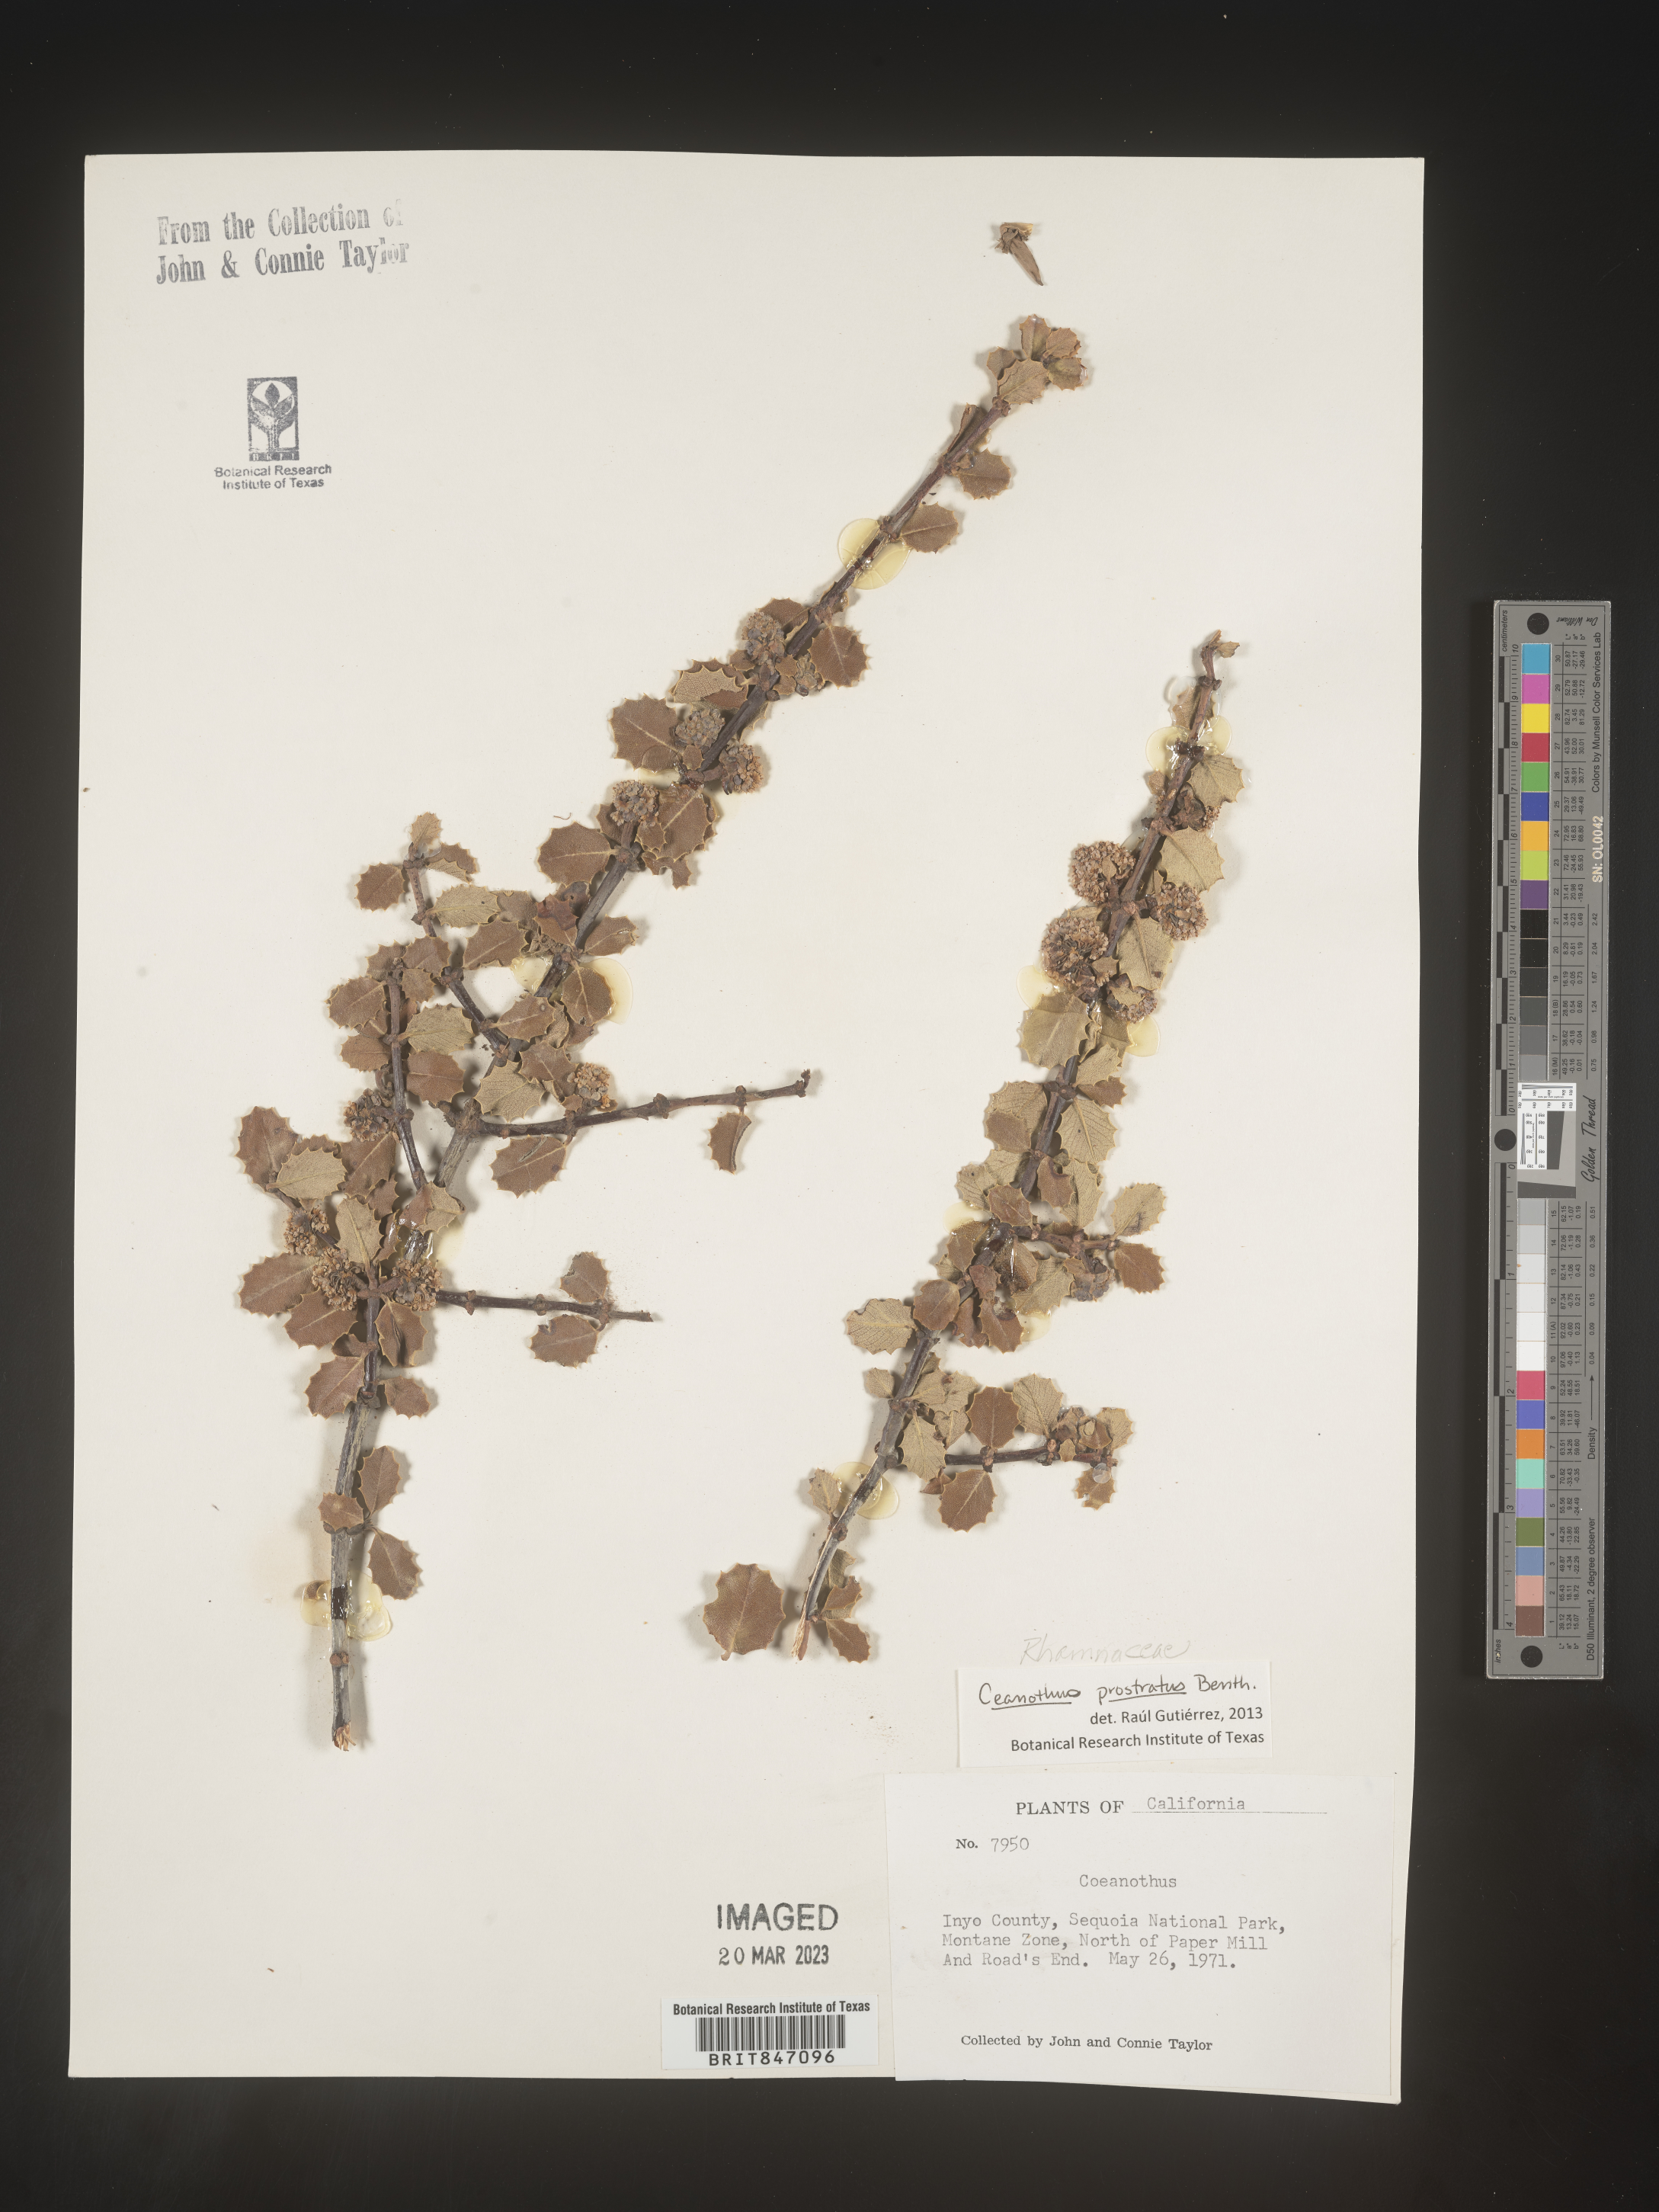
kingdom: Plantae
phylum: Tracheophyta
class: Magnoliopsida
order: Rosales
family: Rhamnaceae
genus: Ceanothus
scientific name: Ceanothus
